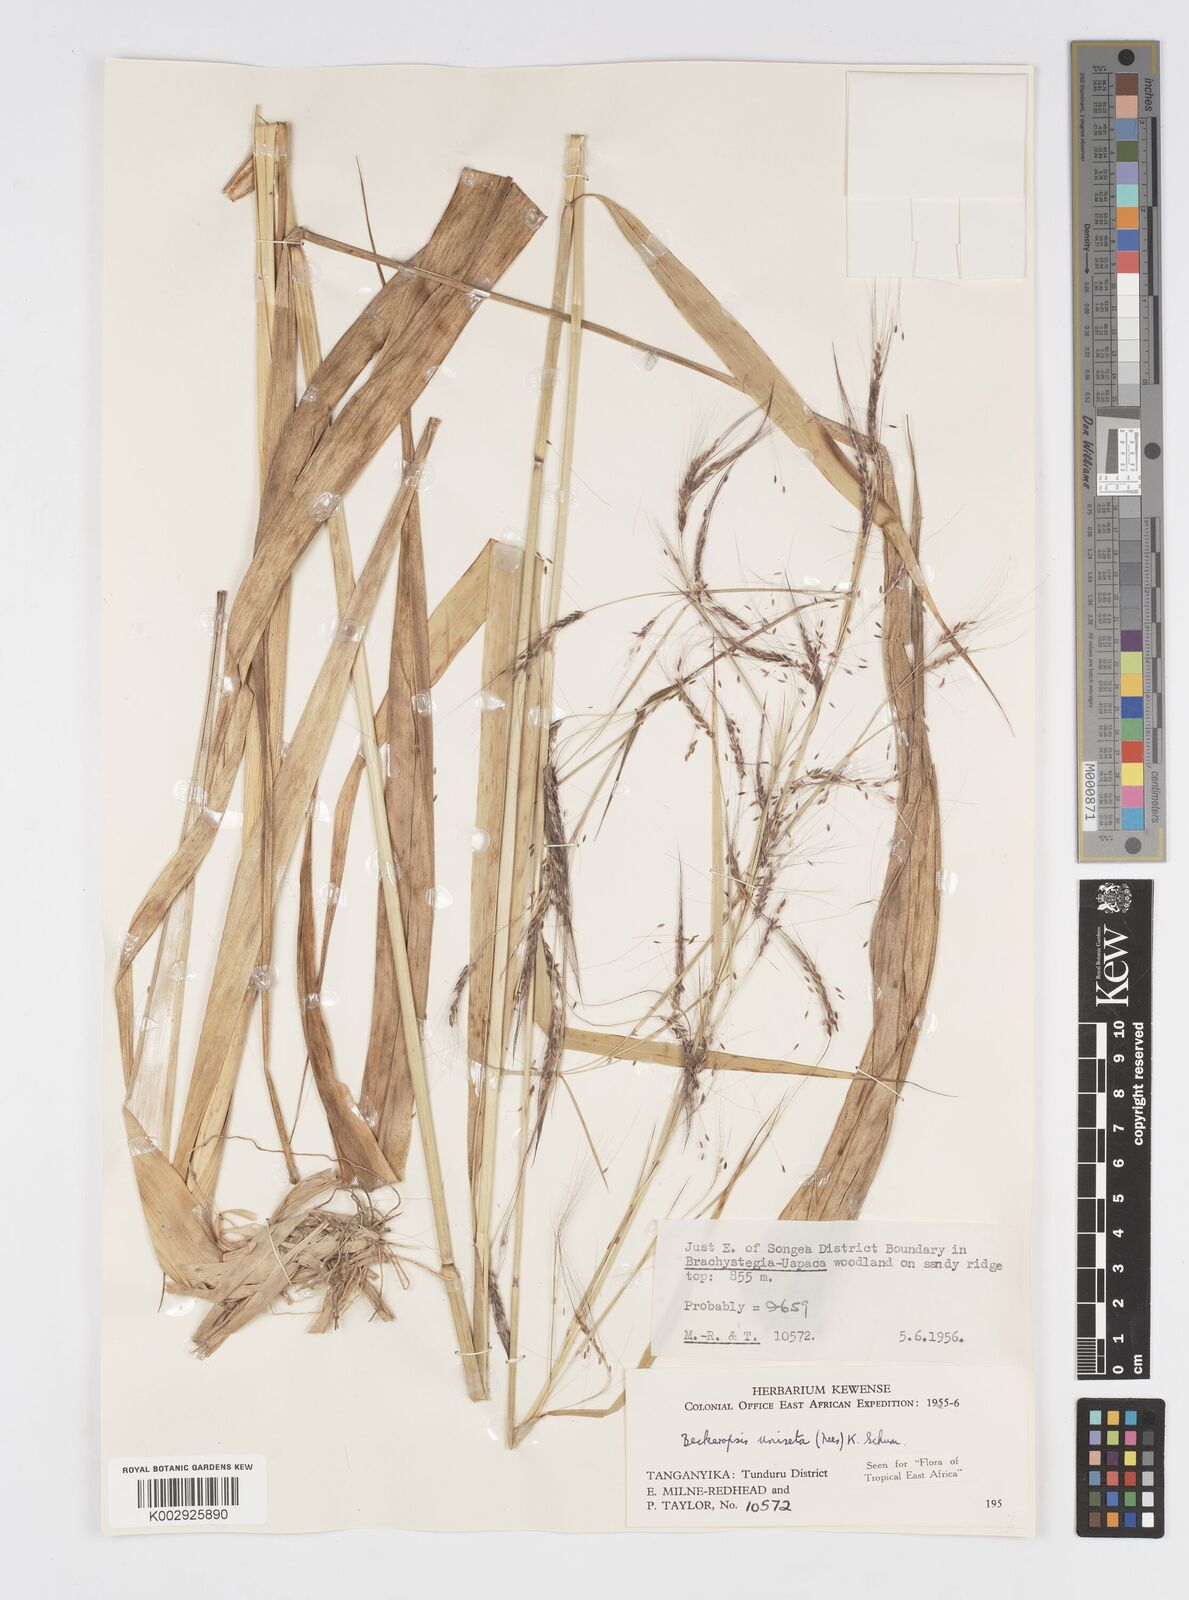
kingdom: Plantae
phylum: Tracheophyta
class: Liliopsida
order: Poales
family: Poaceae
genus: Cenchrus
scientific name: Cenchrus Pennisetum spec
